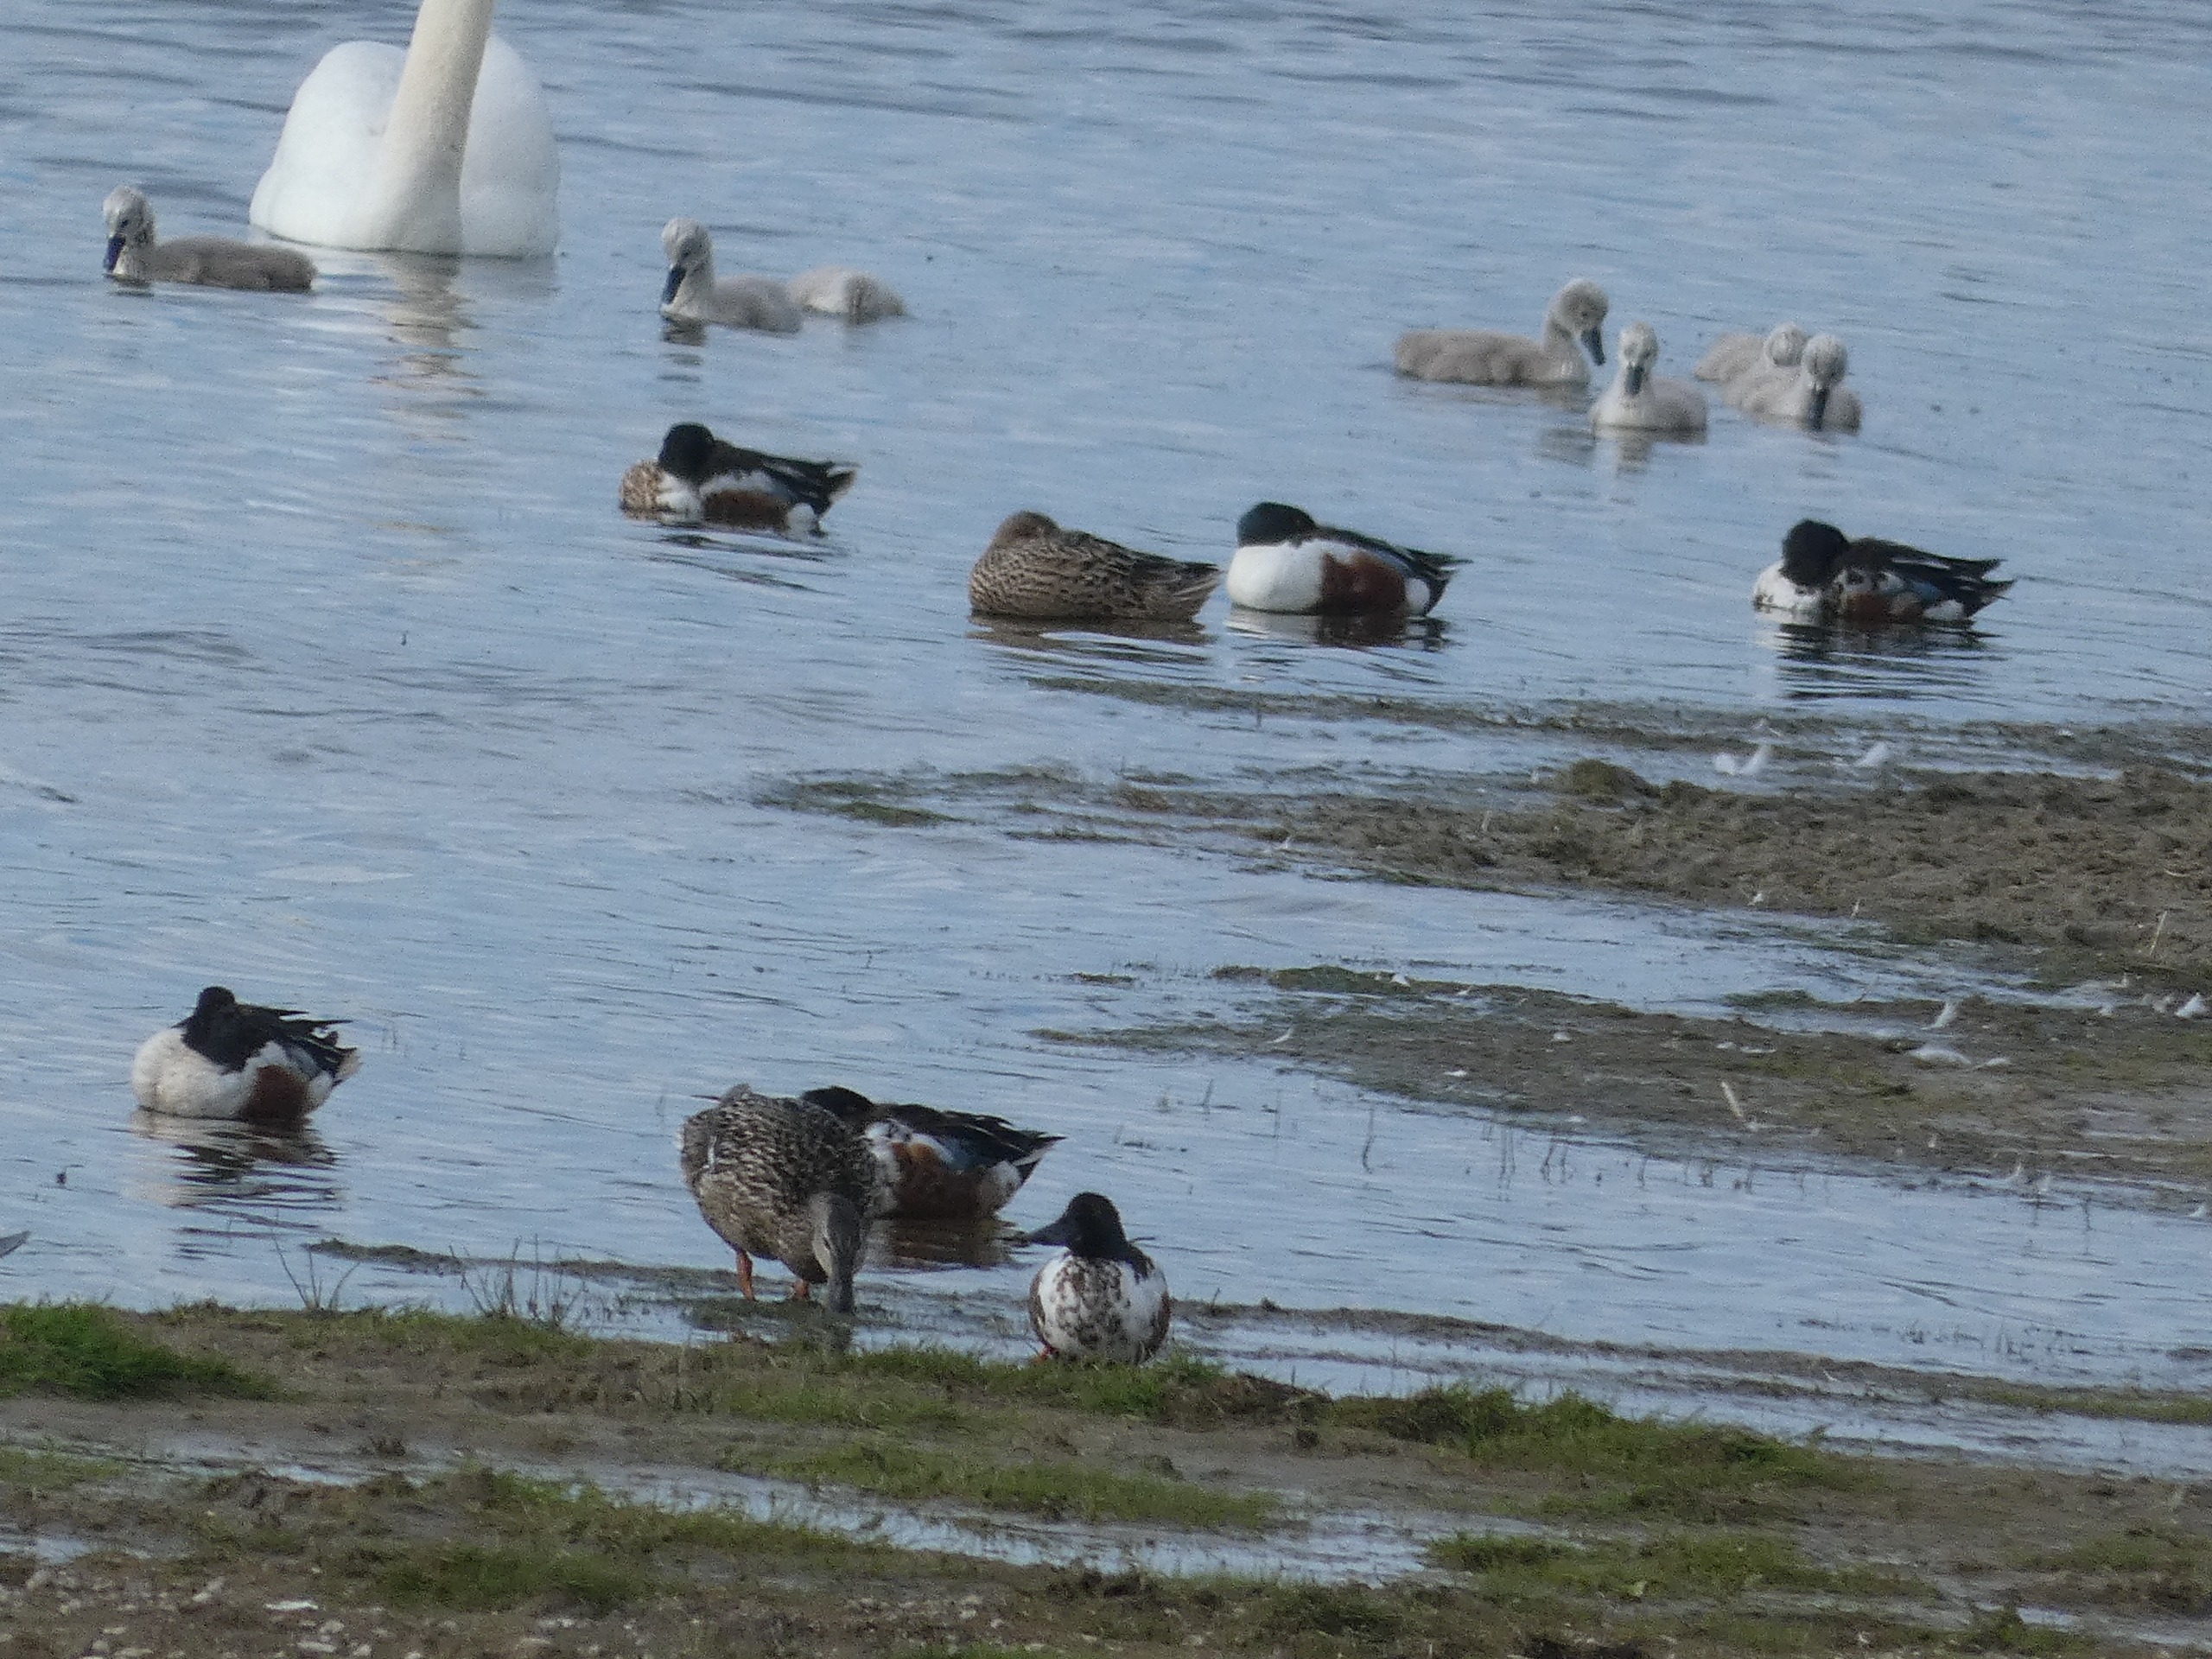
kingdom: Animalia
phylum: Chordata
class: Aves
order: Anseriformes
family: Anatidae
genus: Spatula
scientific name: Spatula clypeata
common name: Skeand
